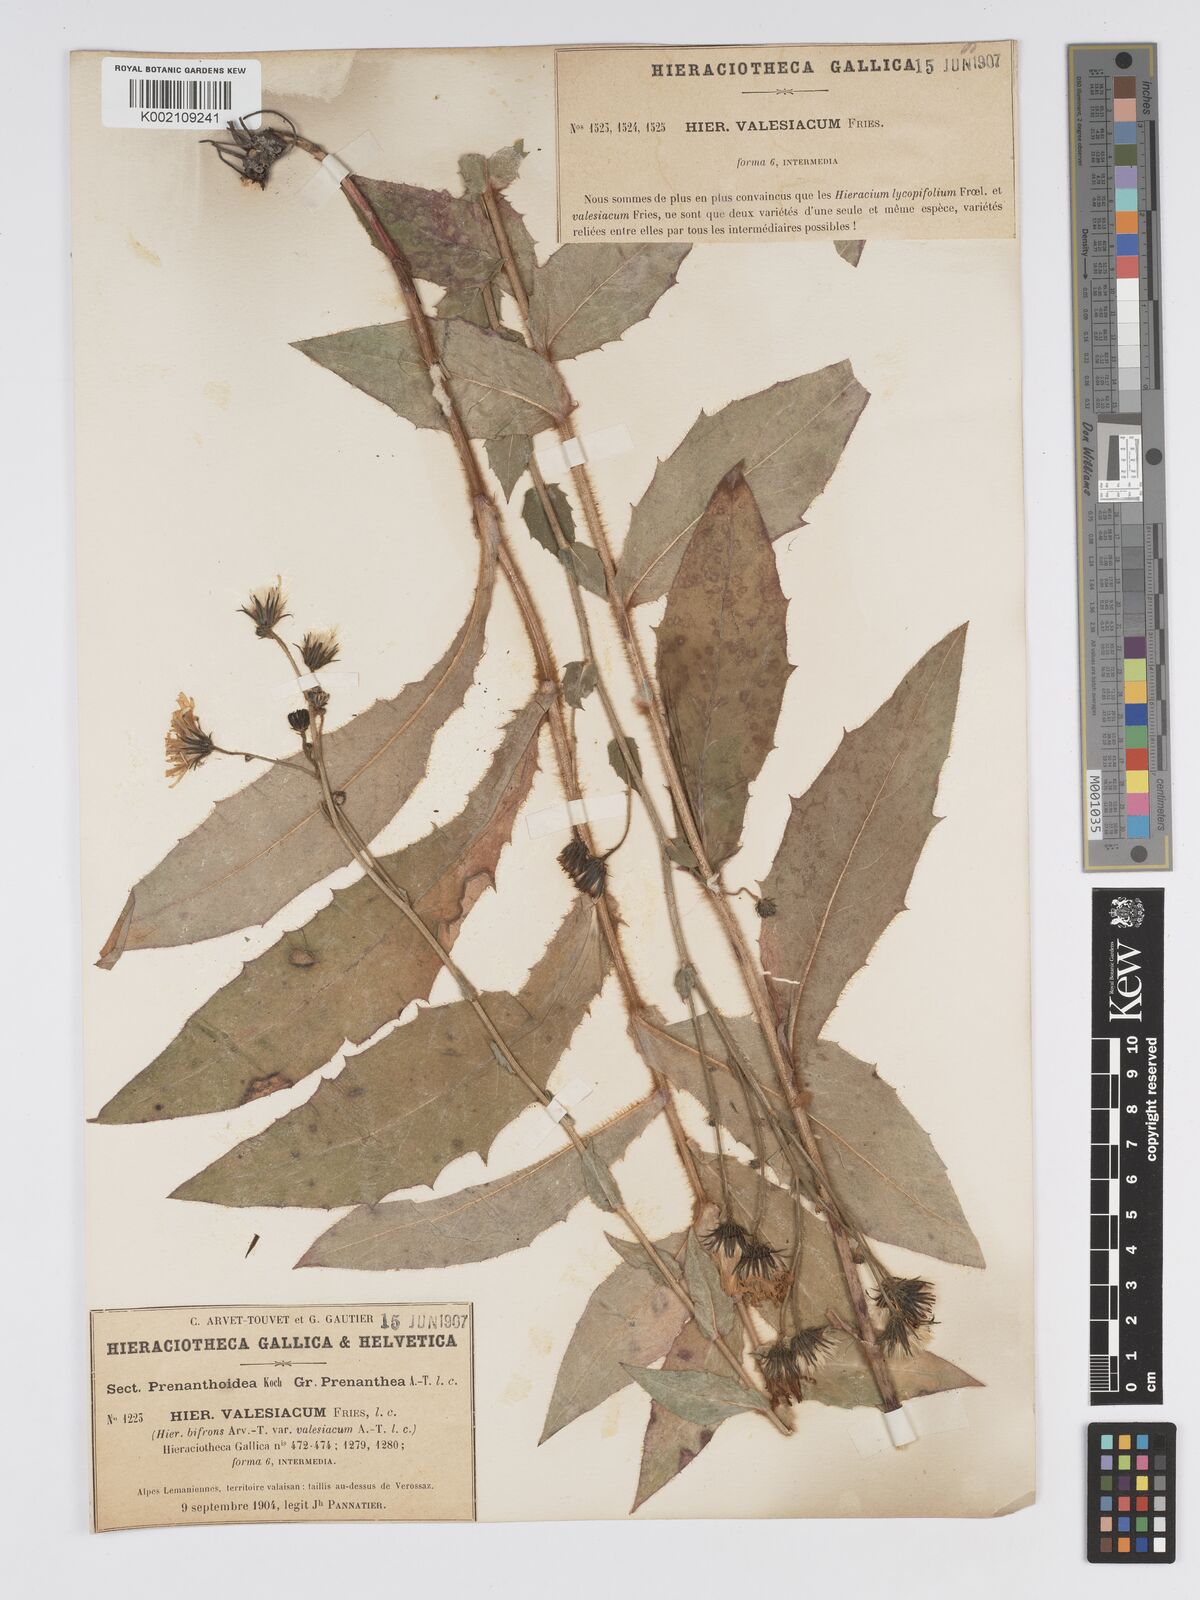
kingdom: Plantae
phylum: Tracheophyta
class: Magnoliopsida
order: Asterales
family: Asteraceae
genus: Hieracium
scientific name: Hieracium lycopifolium
